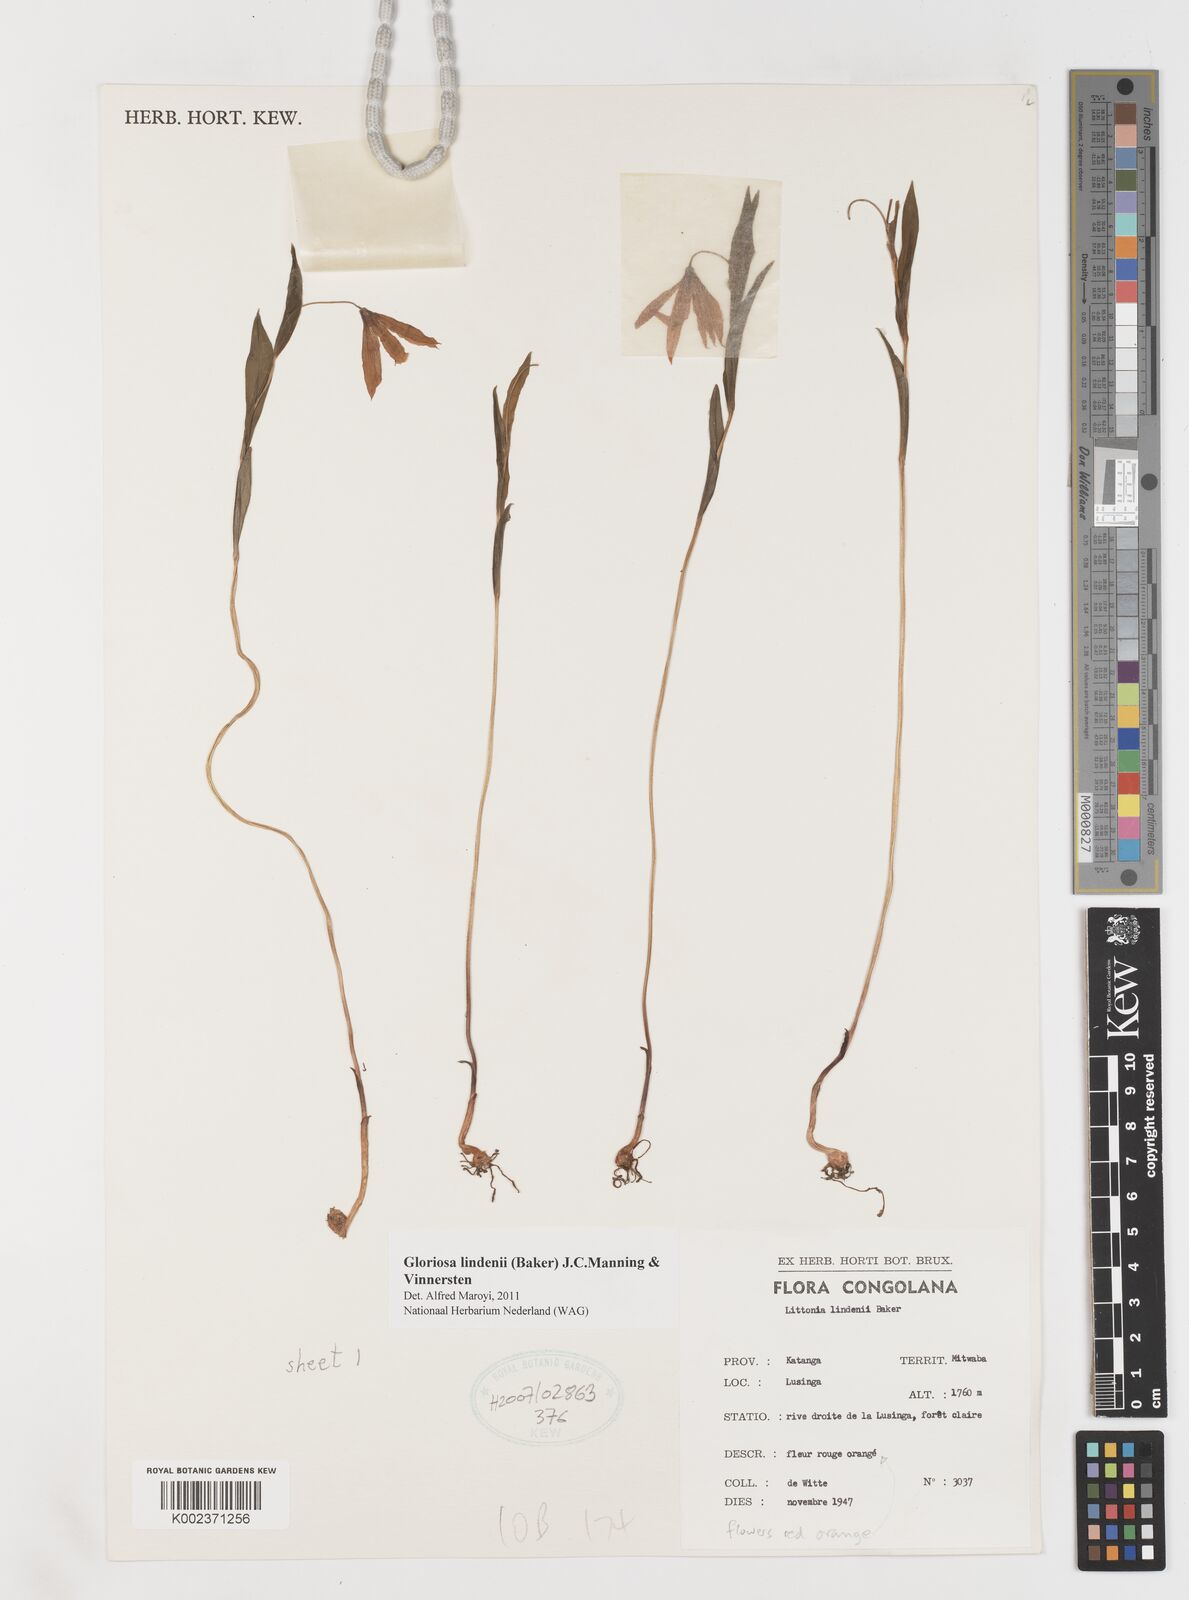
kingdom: Plantae
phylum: Tracheophyta
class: Liliopsida
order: Liliales
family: Colchicaceae
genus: Gloriosa
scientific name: Gloriosa lindenii
